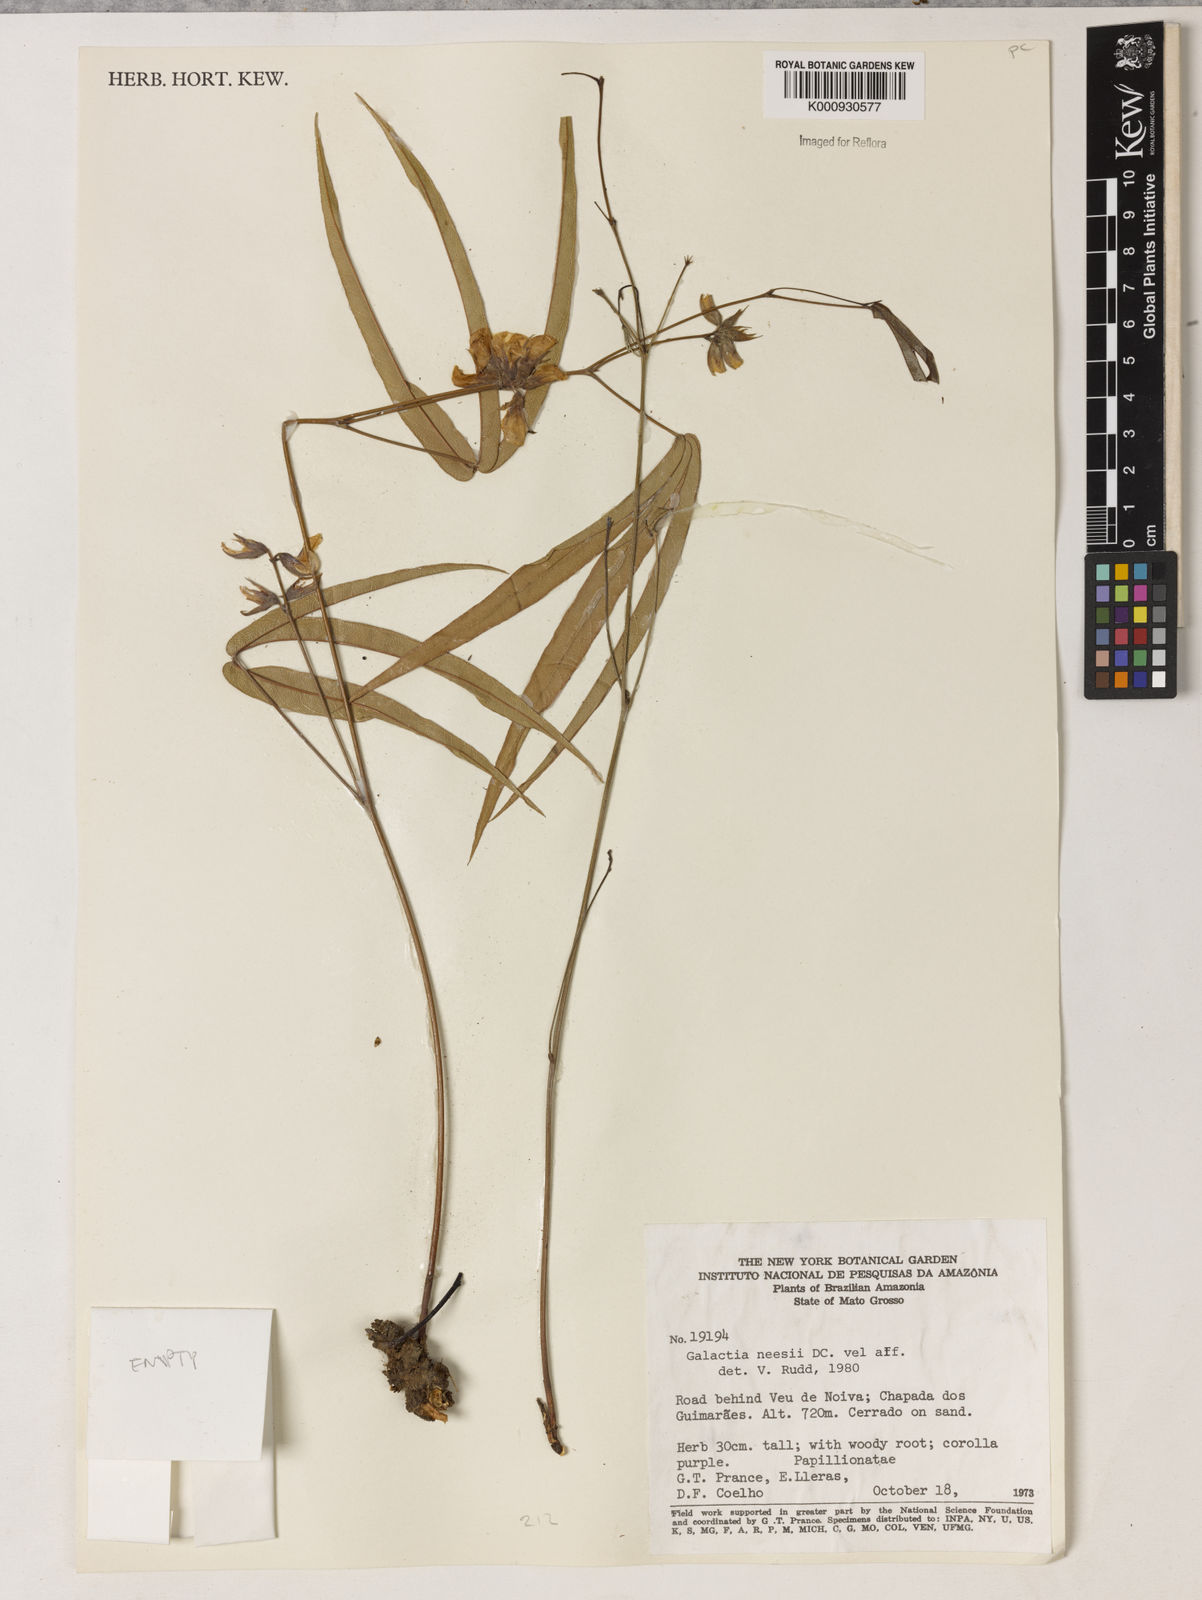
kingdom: Plantae
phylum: Tracheophyta
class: Magnoliopsida
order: Fabales
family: Fabaceae
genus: Betencourtia
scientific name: Betencourtia martii
